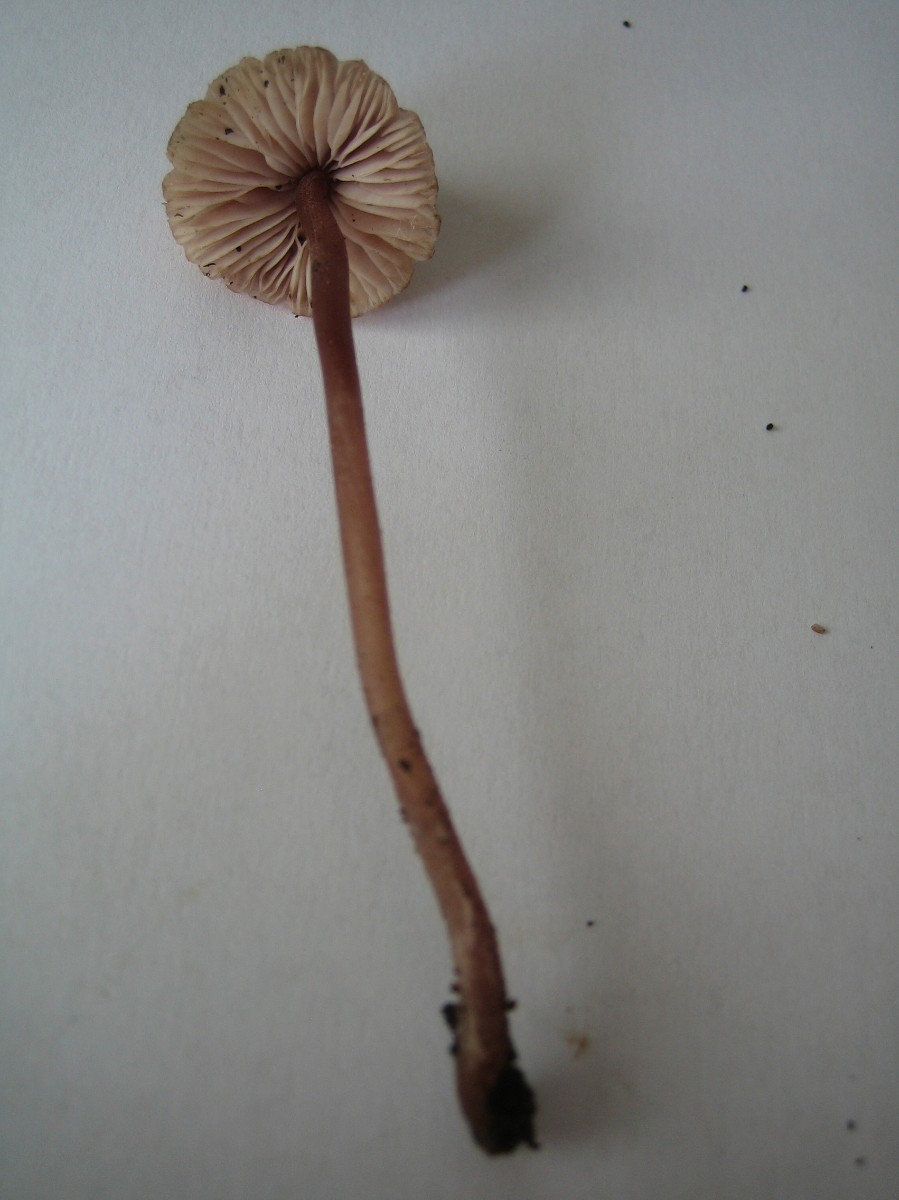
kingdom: Fungi
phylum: Basidiomycota
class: Agaricomycetes
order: Agaricales
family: Mycenaceae
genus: Mycena
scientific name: Mycena haematopus
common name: blødende huesvamp
